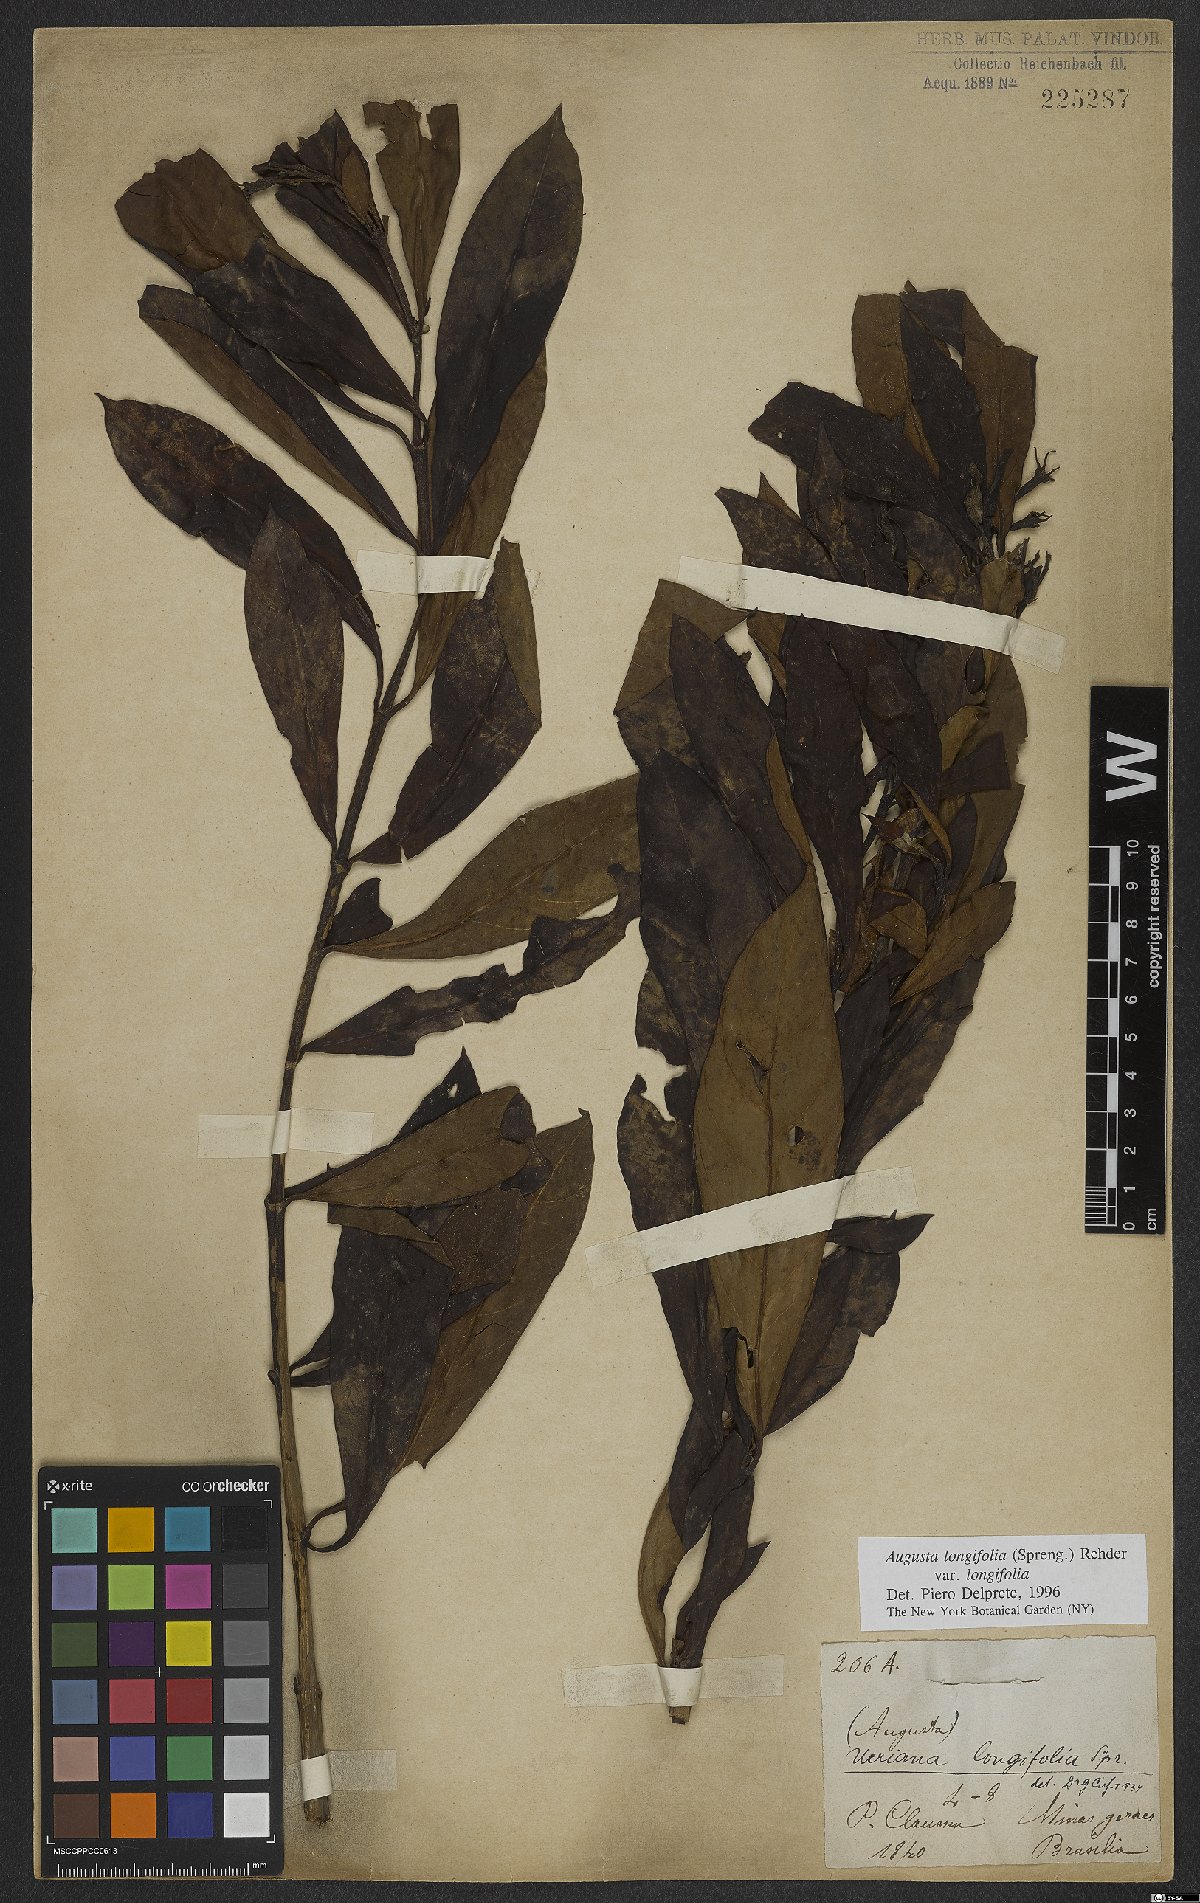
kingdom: Plantae
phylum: Tracheophyta
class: Magnoliopsida
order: Gentianales
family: Rubiaceae
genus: Augusta
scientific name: Augusta longifolia
